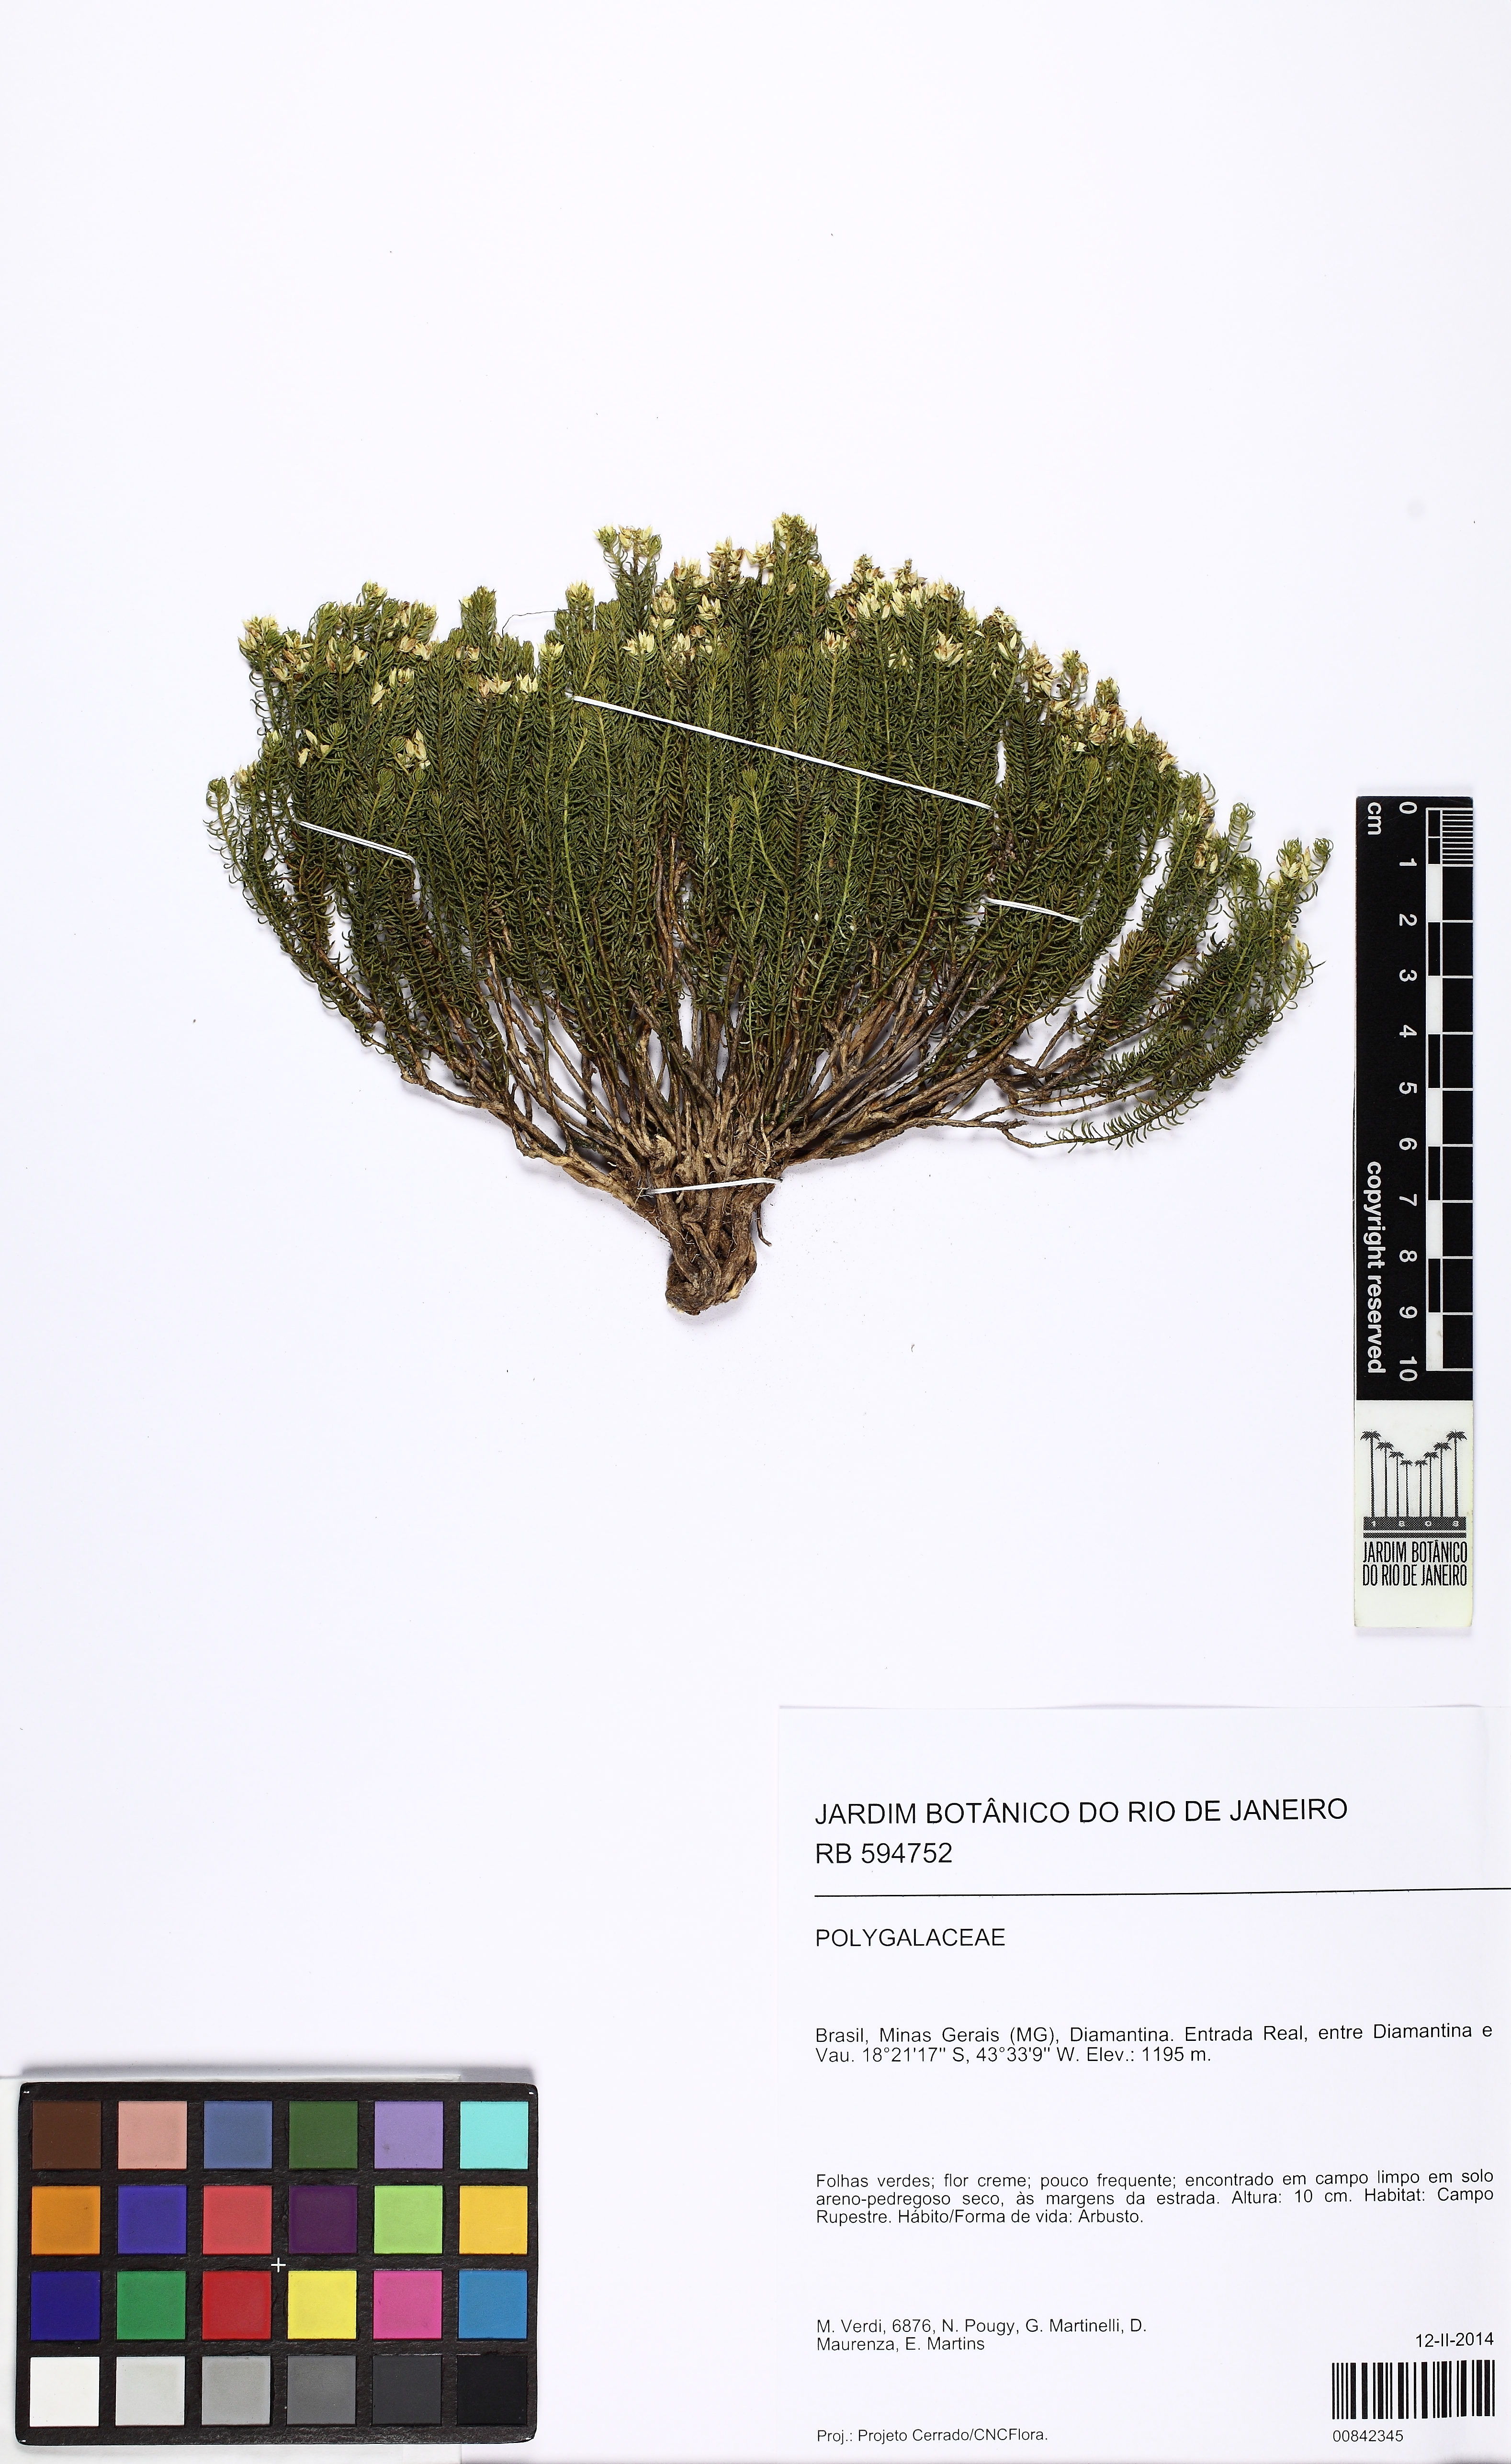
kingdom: Plantae
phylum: Tracheophyta
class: Magnoliopsida
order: Fabales
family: Polygalaceae
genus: Polygala
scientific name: Polygala bryoides
